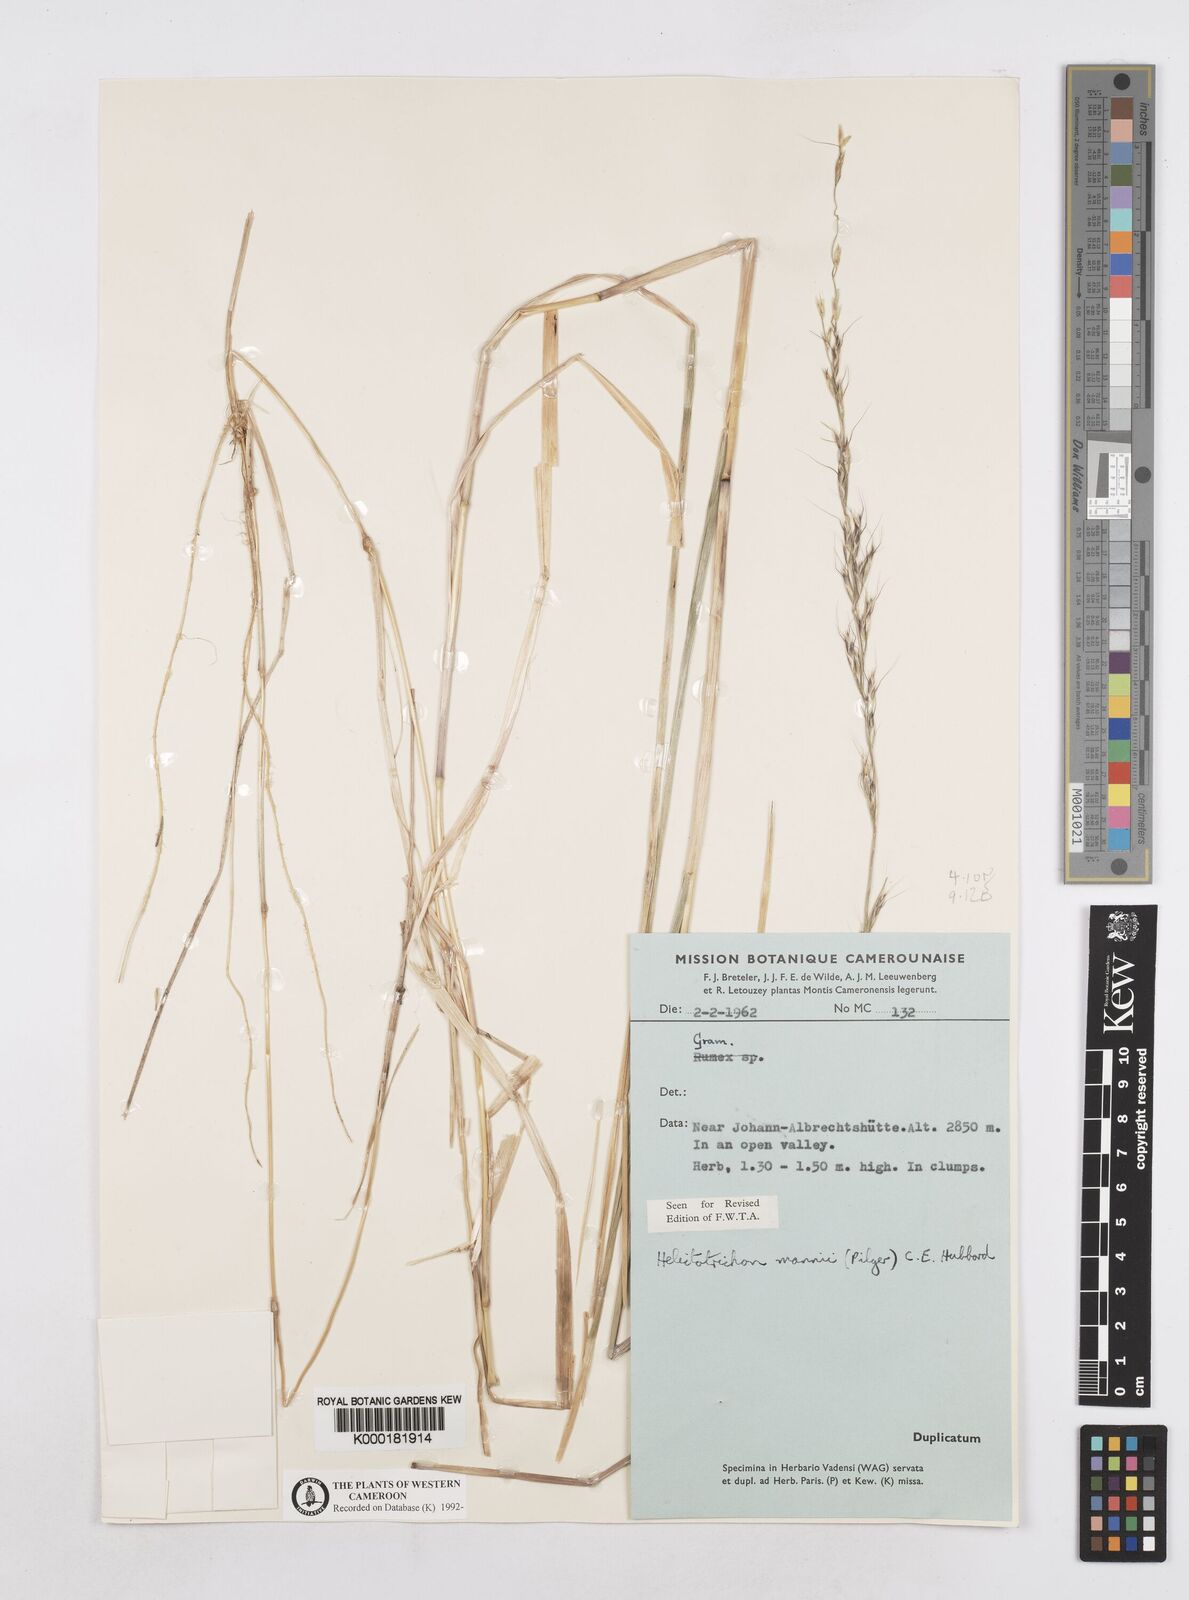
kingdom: Plantae
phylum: Tracheophyta
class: Liliopsida
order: Poales
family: Poaceae
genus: Trisetopsis
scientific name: Trisetopsis mannii
